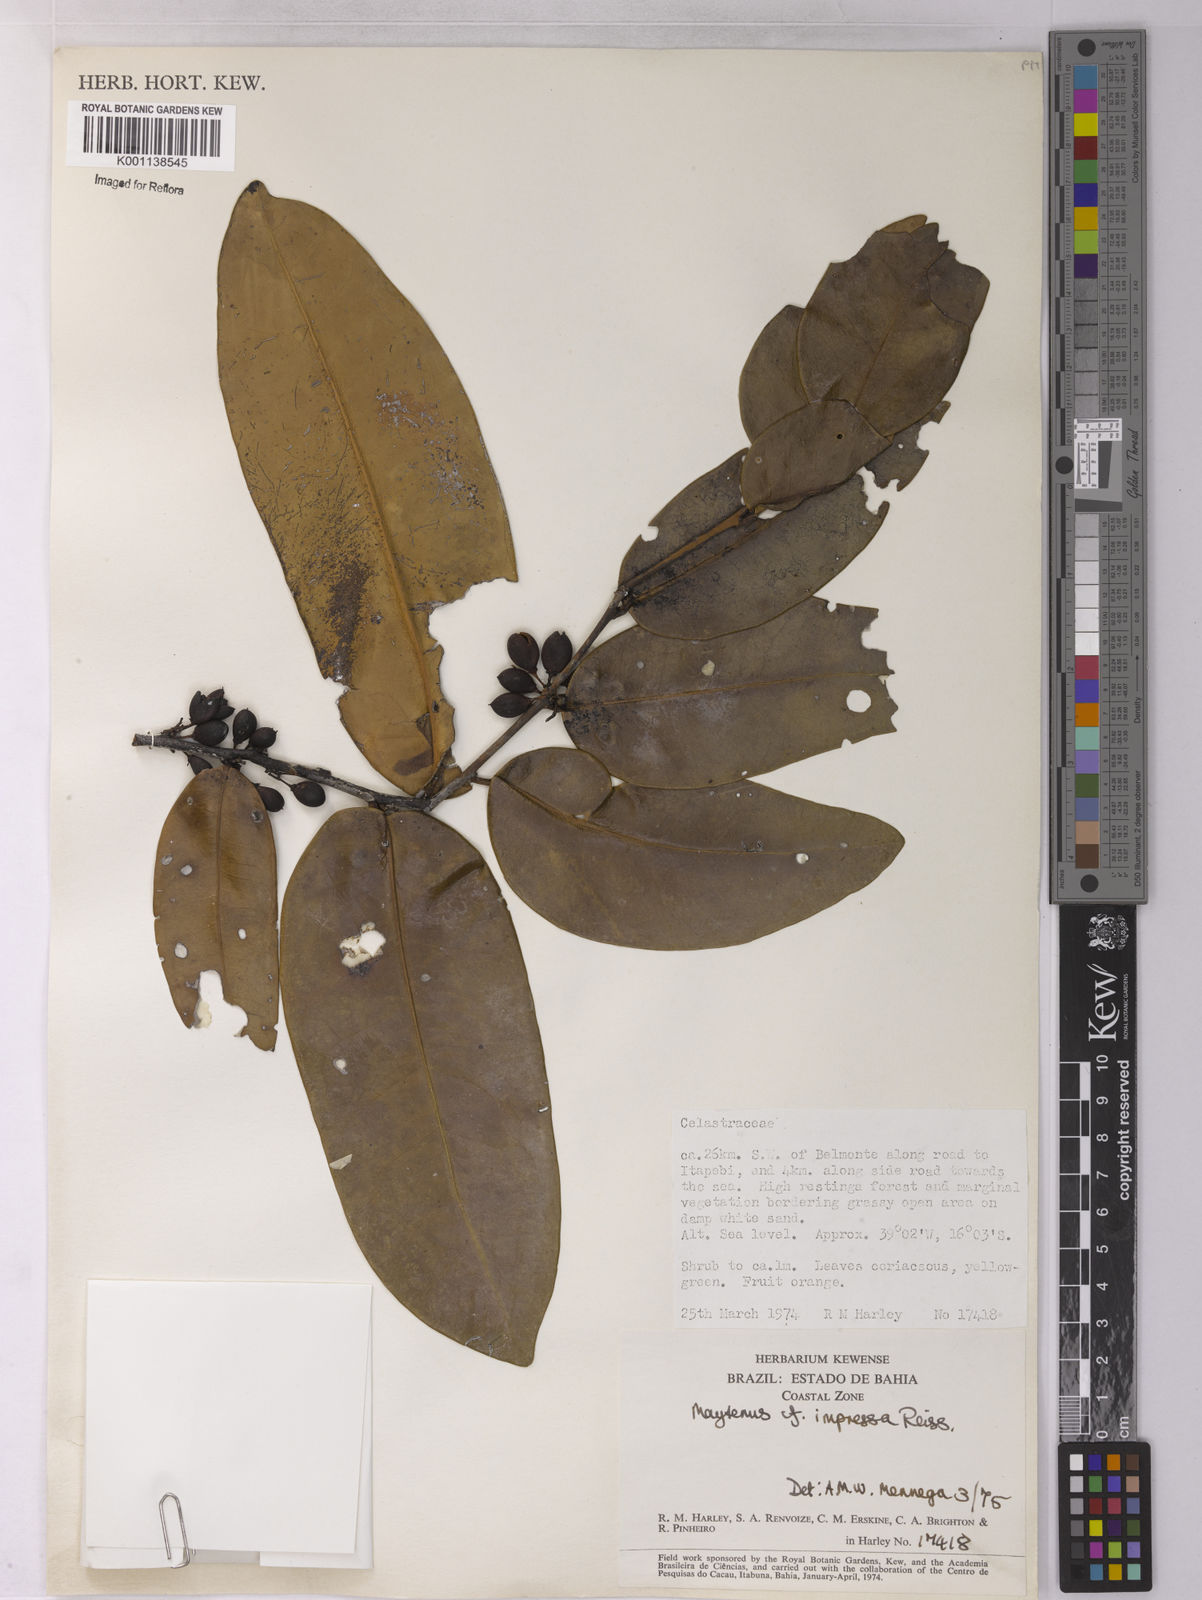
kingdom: Plantae
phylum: Tracheophyta
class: Magnoliopsida
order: Celastrales
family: Celastraceae
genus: Monteverdia
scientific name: Monteverdia obtusifolia
